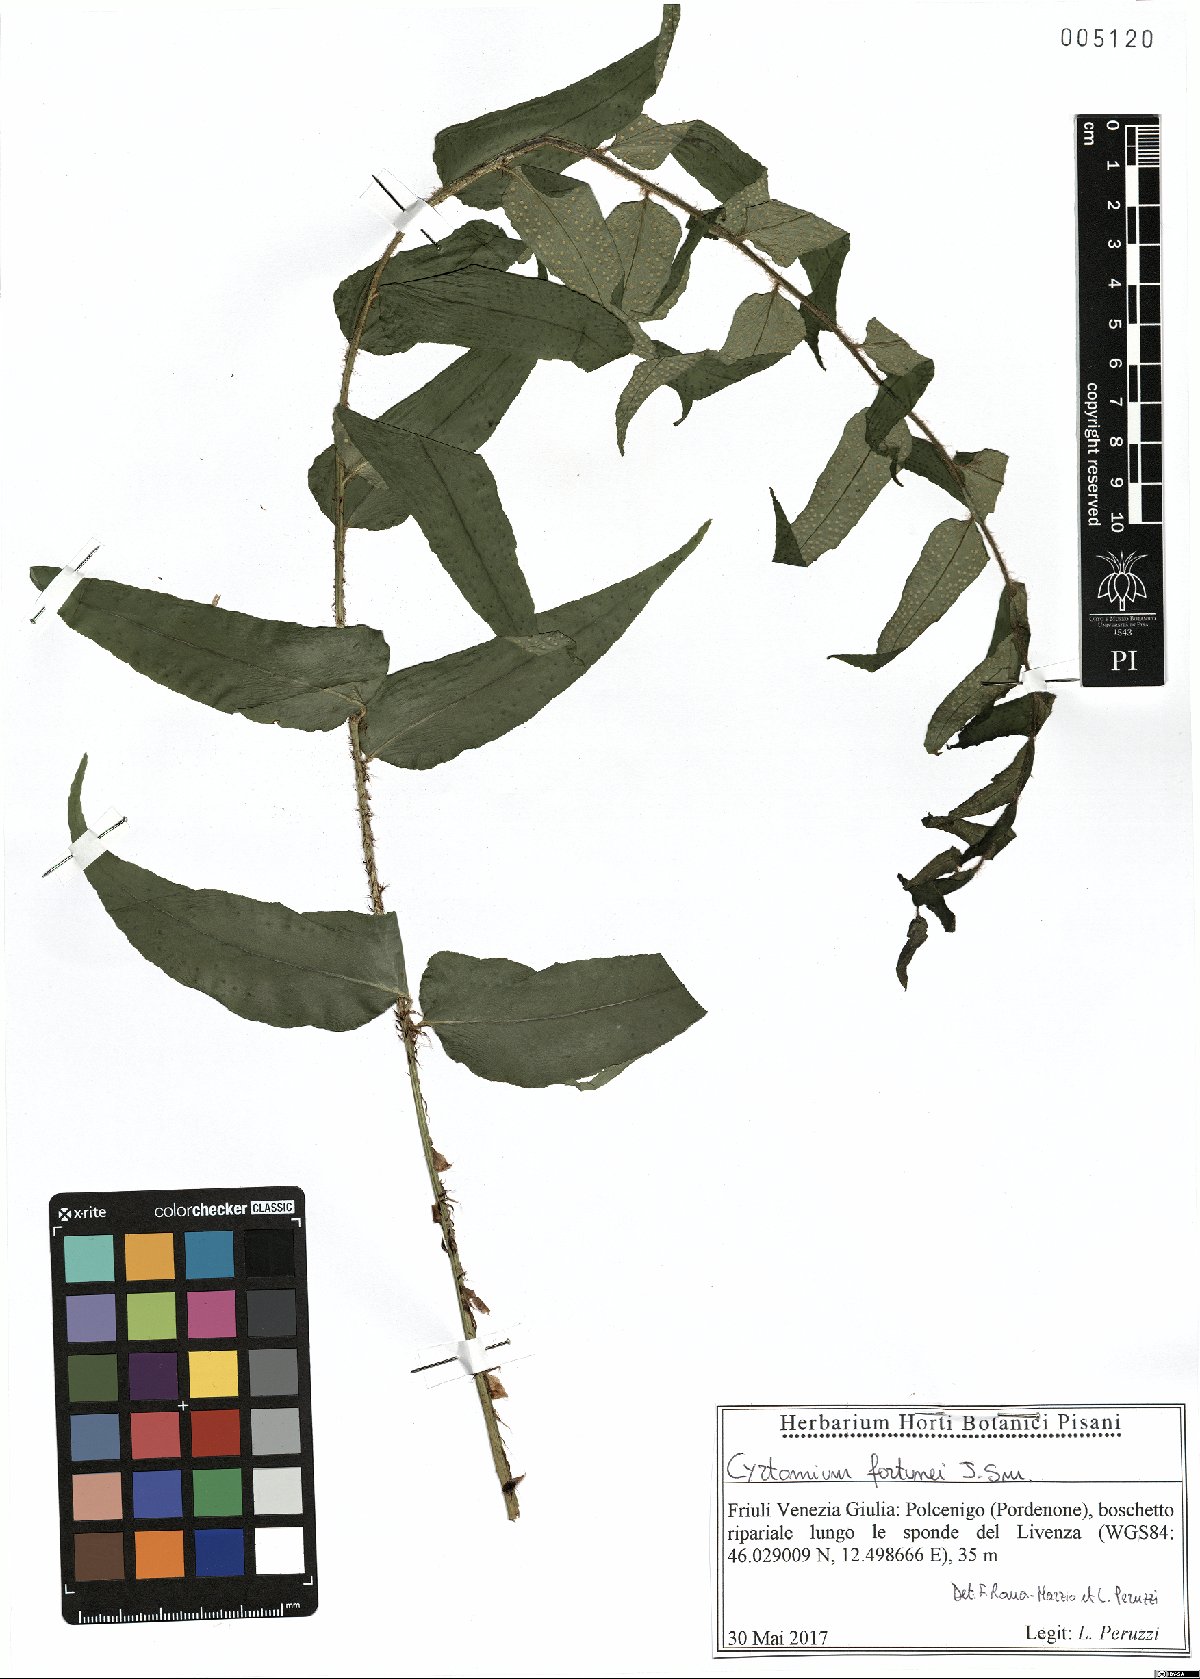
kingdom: Plantae
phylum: Tracheophyta
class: Polypodiopsida
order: Polypodiales
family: Dryopteridaceae
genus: Cyrtomium
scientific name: Cyrtomium fortunei
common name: Asian netvein hollyfern
